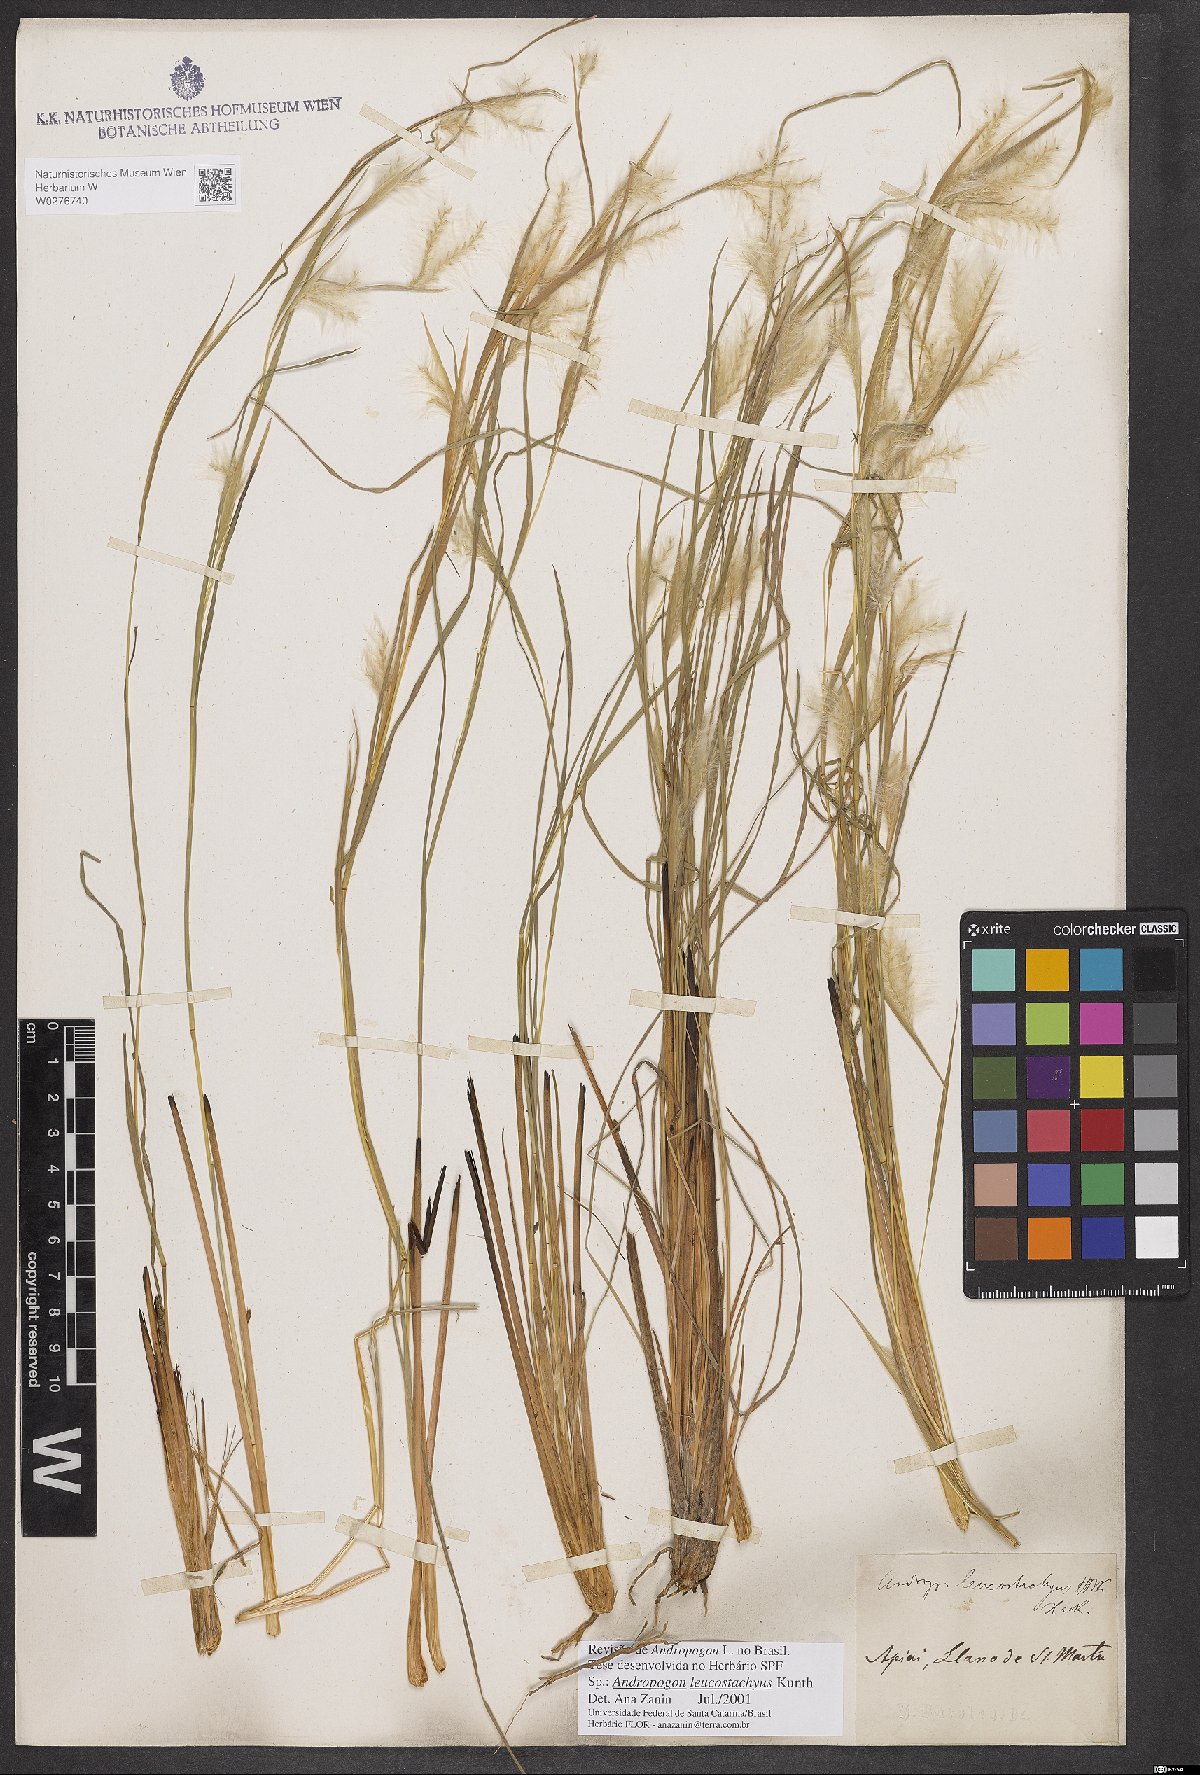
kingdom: Plantae
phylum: Tracheophyta
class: Liliopsida
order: Poales
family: Poaceae
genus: Andropogon
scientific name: Andropogon leucostachyus
